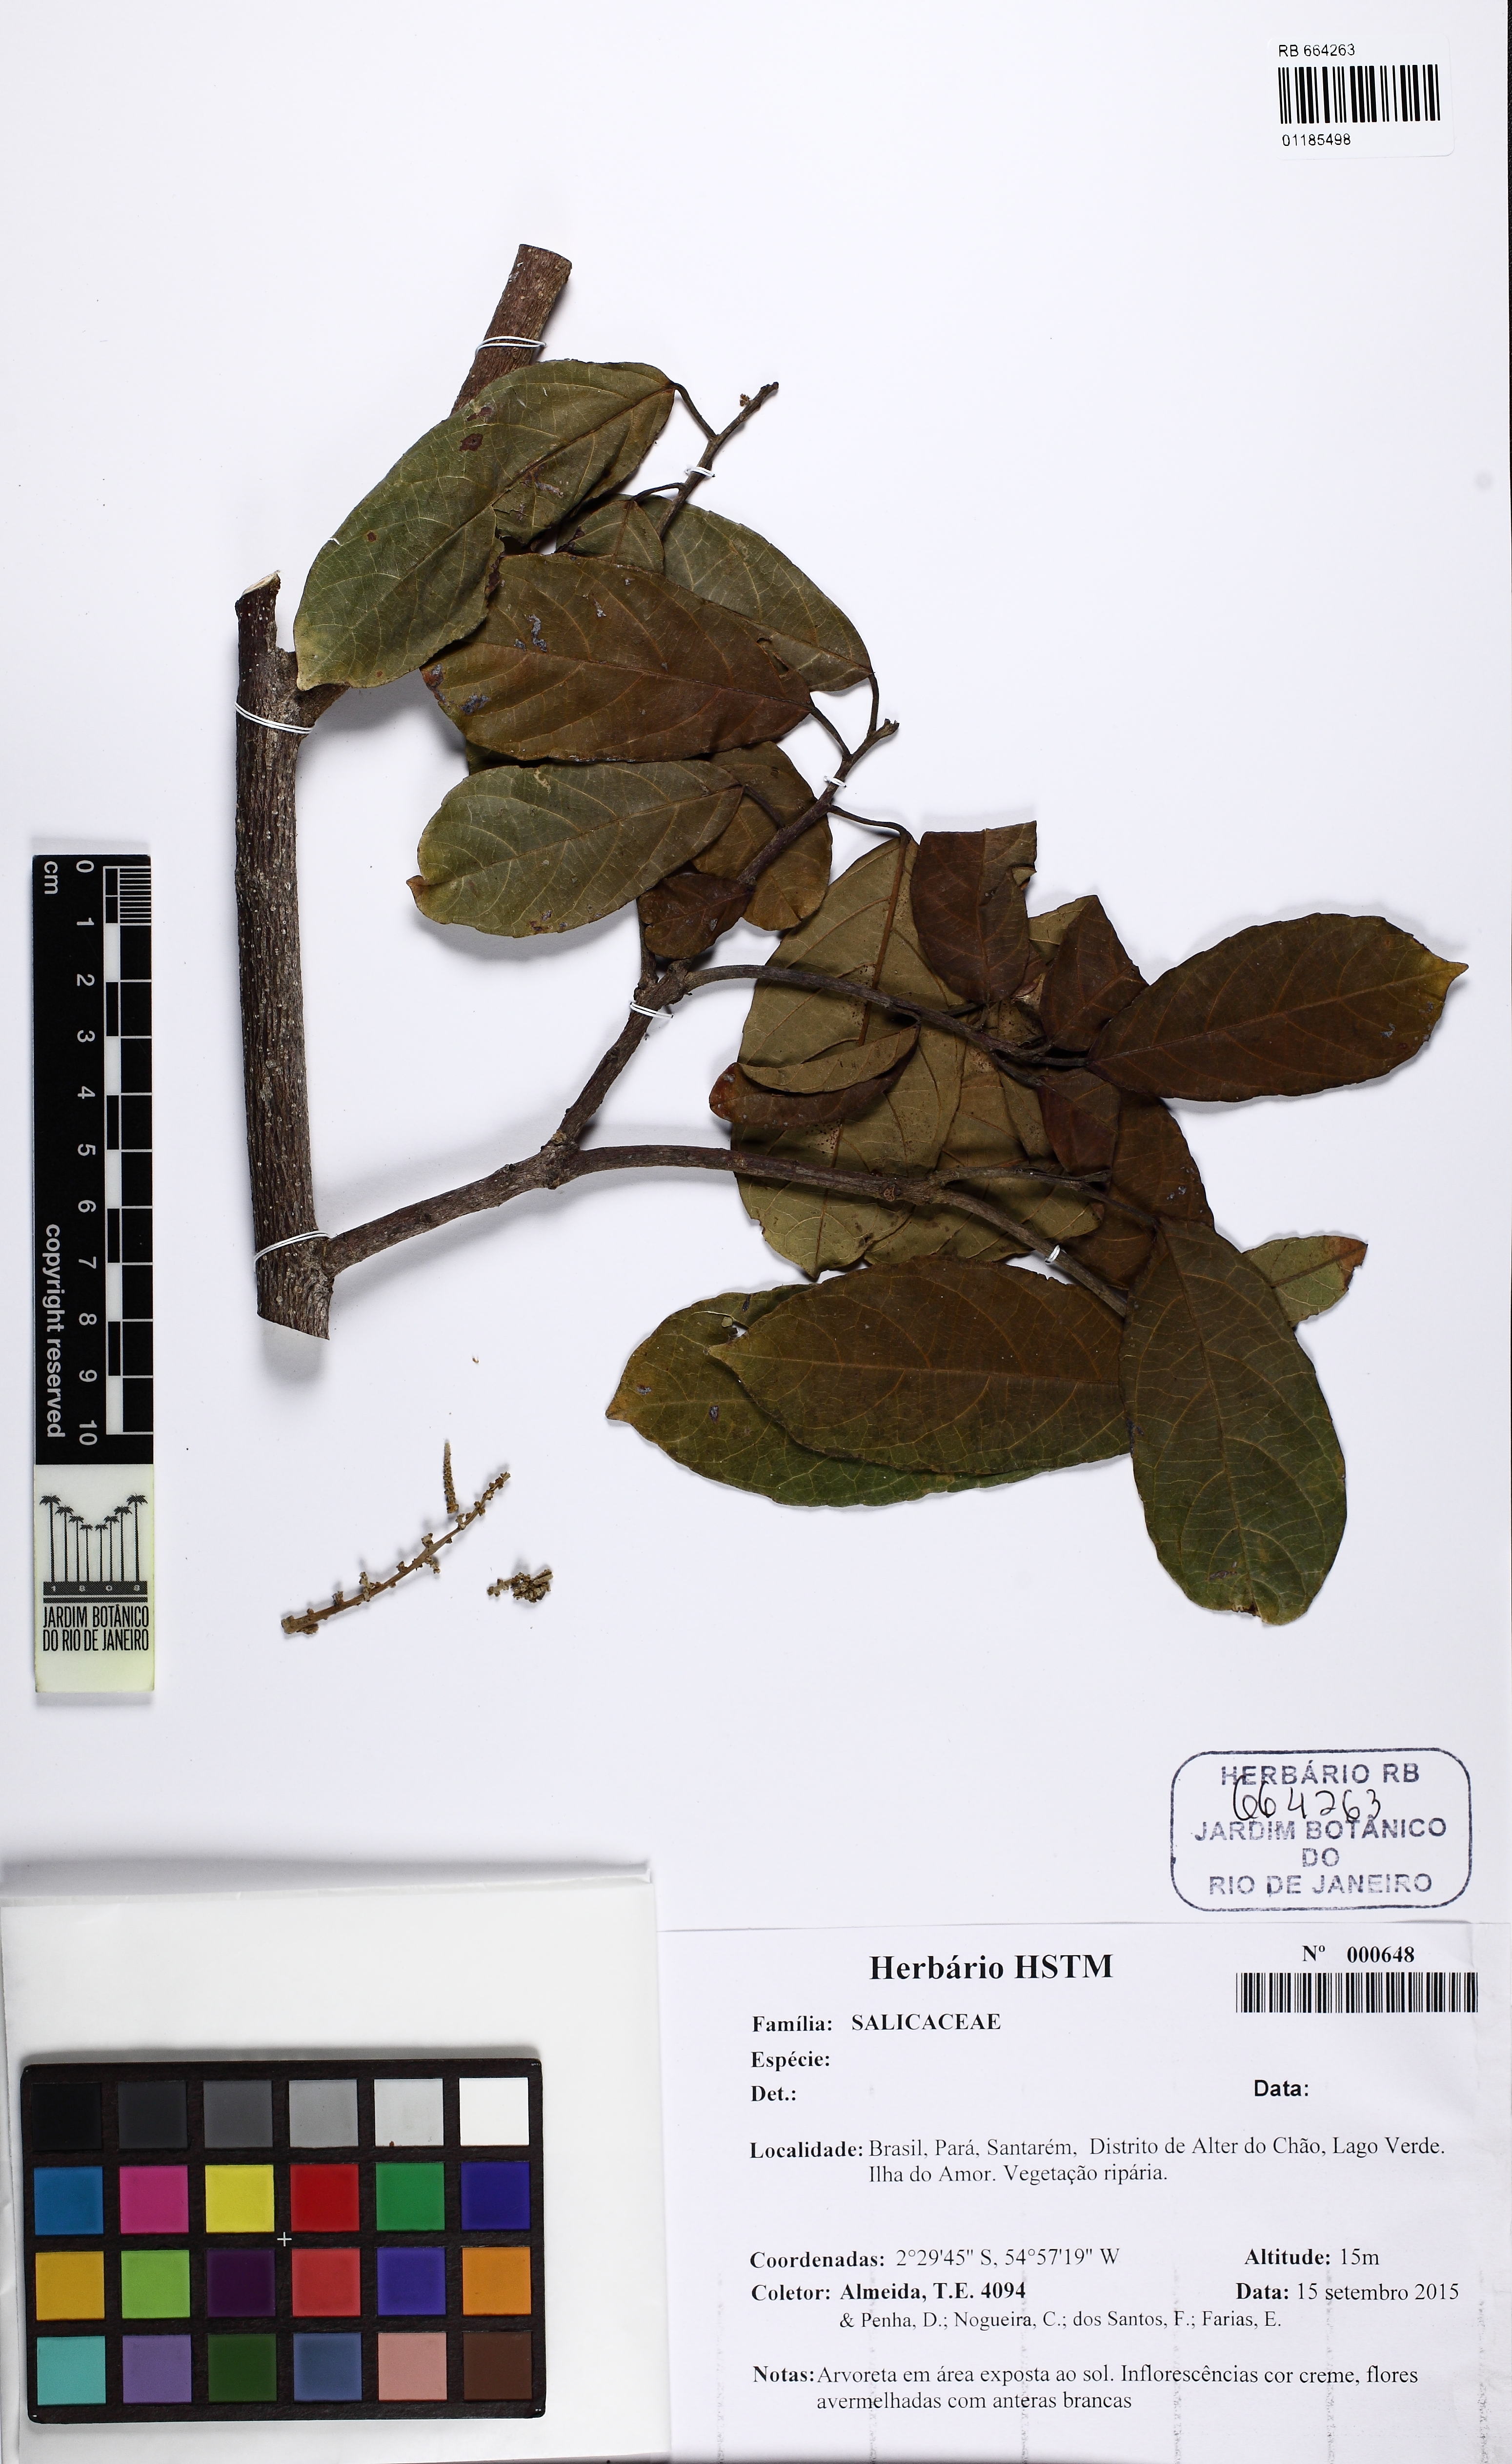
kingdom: Plantae
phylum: Tracheophyta
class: Magnoliopsida
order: Malpighiales
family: Salicaceae
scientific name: Salicaceae
